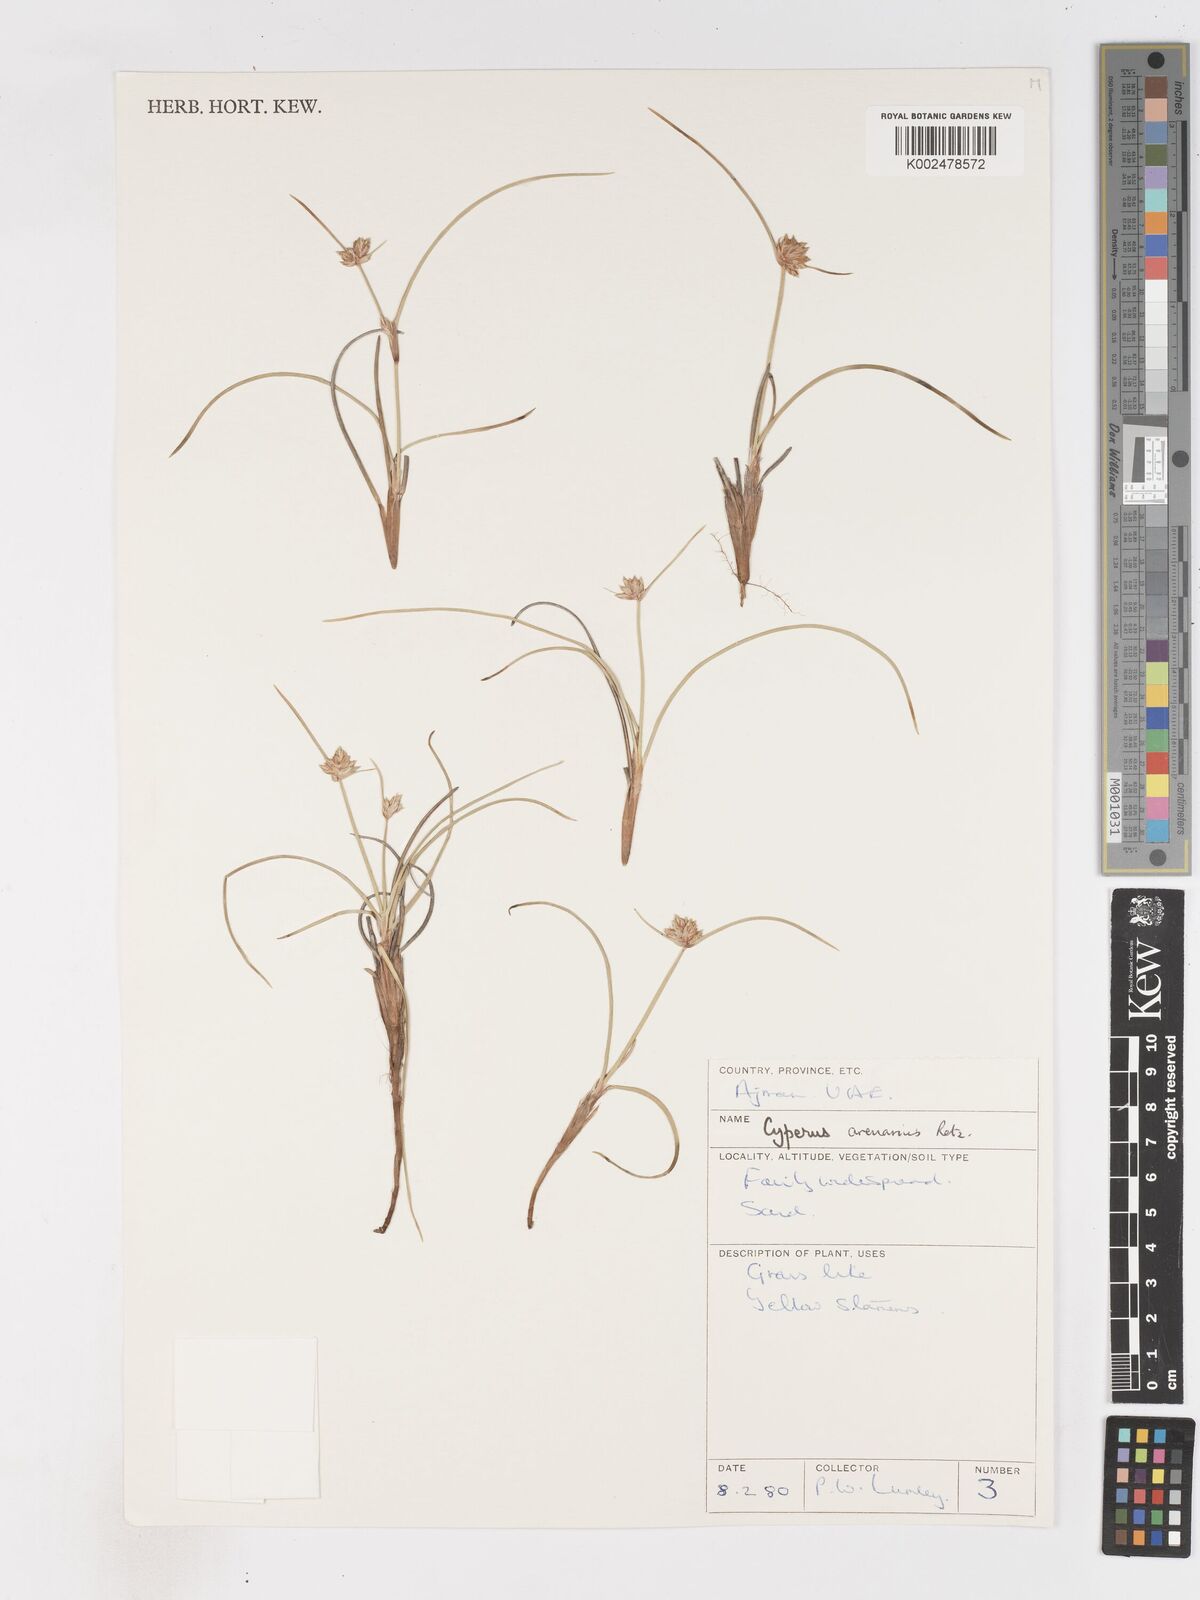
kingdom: Plantae
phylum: Tracheophyta
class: Liliopsida
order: Poales
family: Cyperaceae
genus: Cyperus
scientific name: Cyperus arenarius
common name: Dwarf sedge
